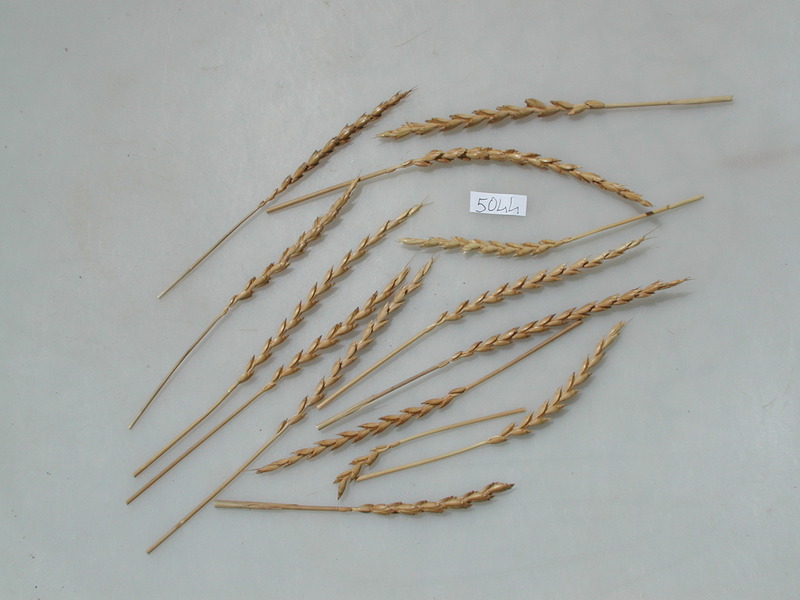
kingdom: Plantae
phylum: Tracheophyta
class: Liliopsida
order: Poales
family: Poaceae
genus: Triticum
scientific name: Triticum aestivum
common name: Spelt
